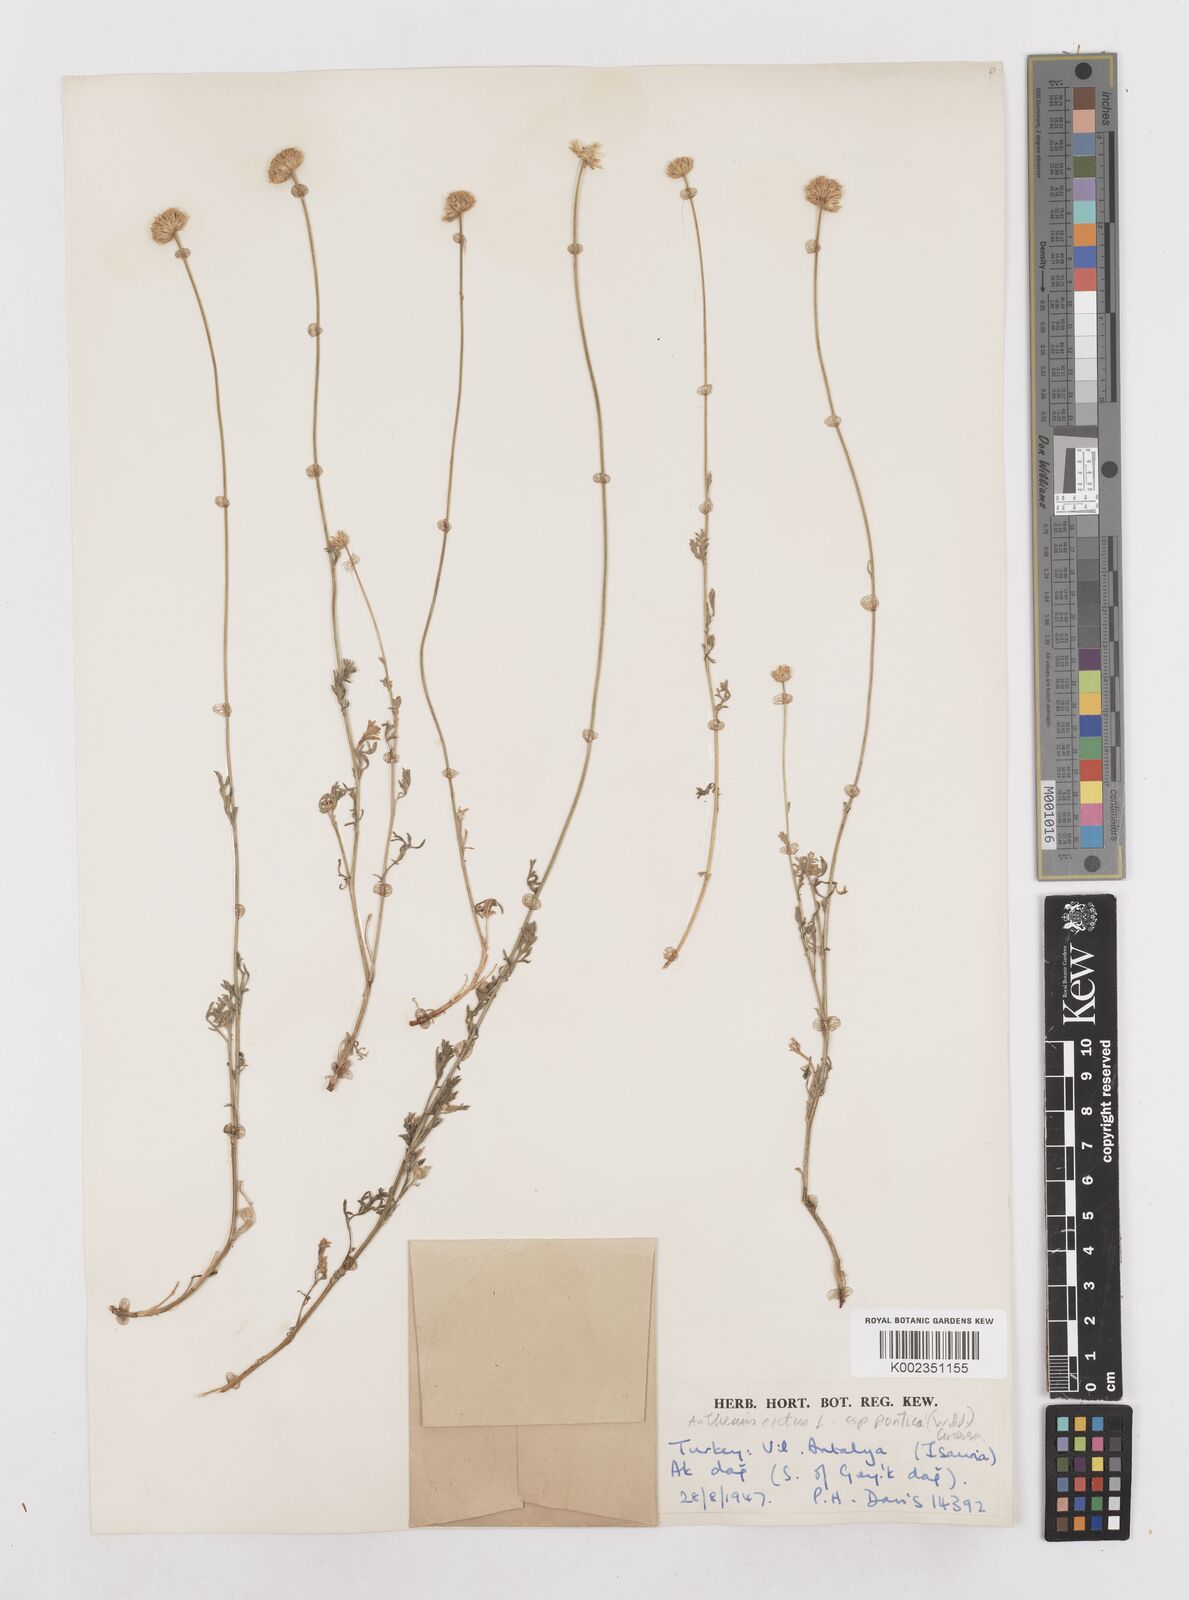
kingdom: Plantae
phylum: Tracheophyta
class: Magnoliopsida
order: Asterales
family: Asteraceae
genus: Anthemis
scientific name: Anthemis cretica
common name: Mountain dog-daisy
